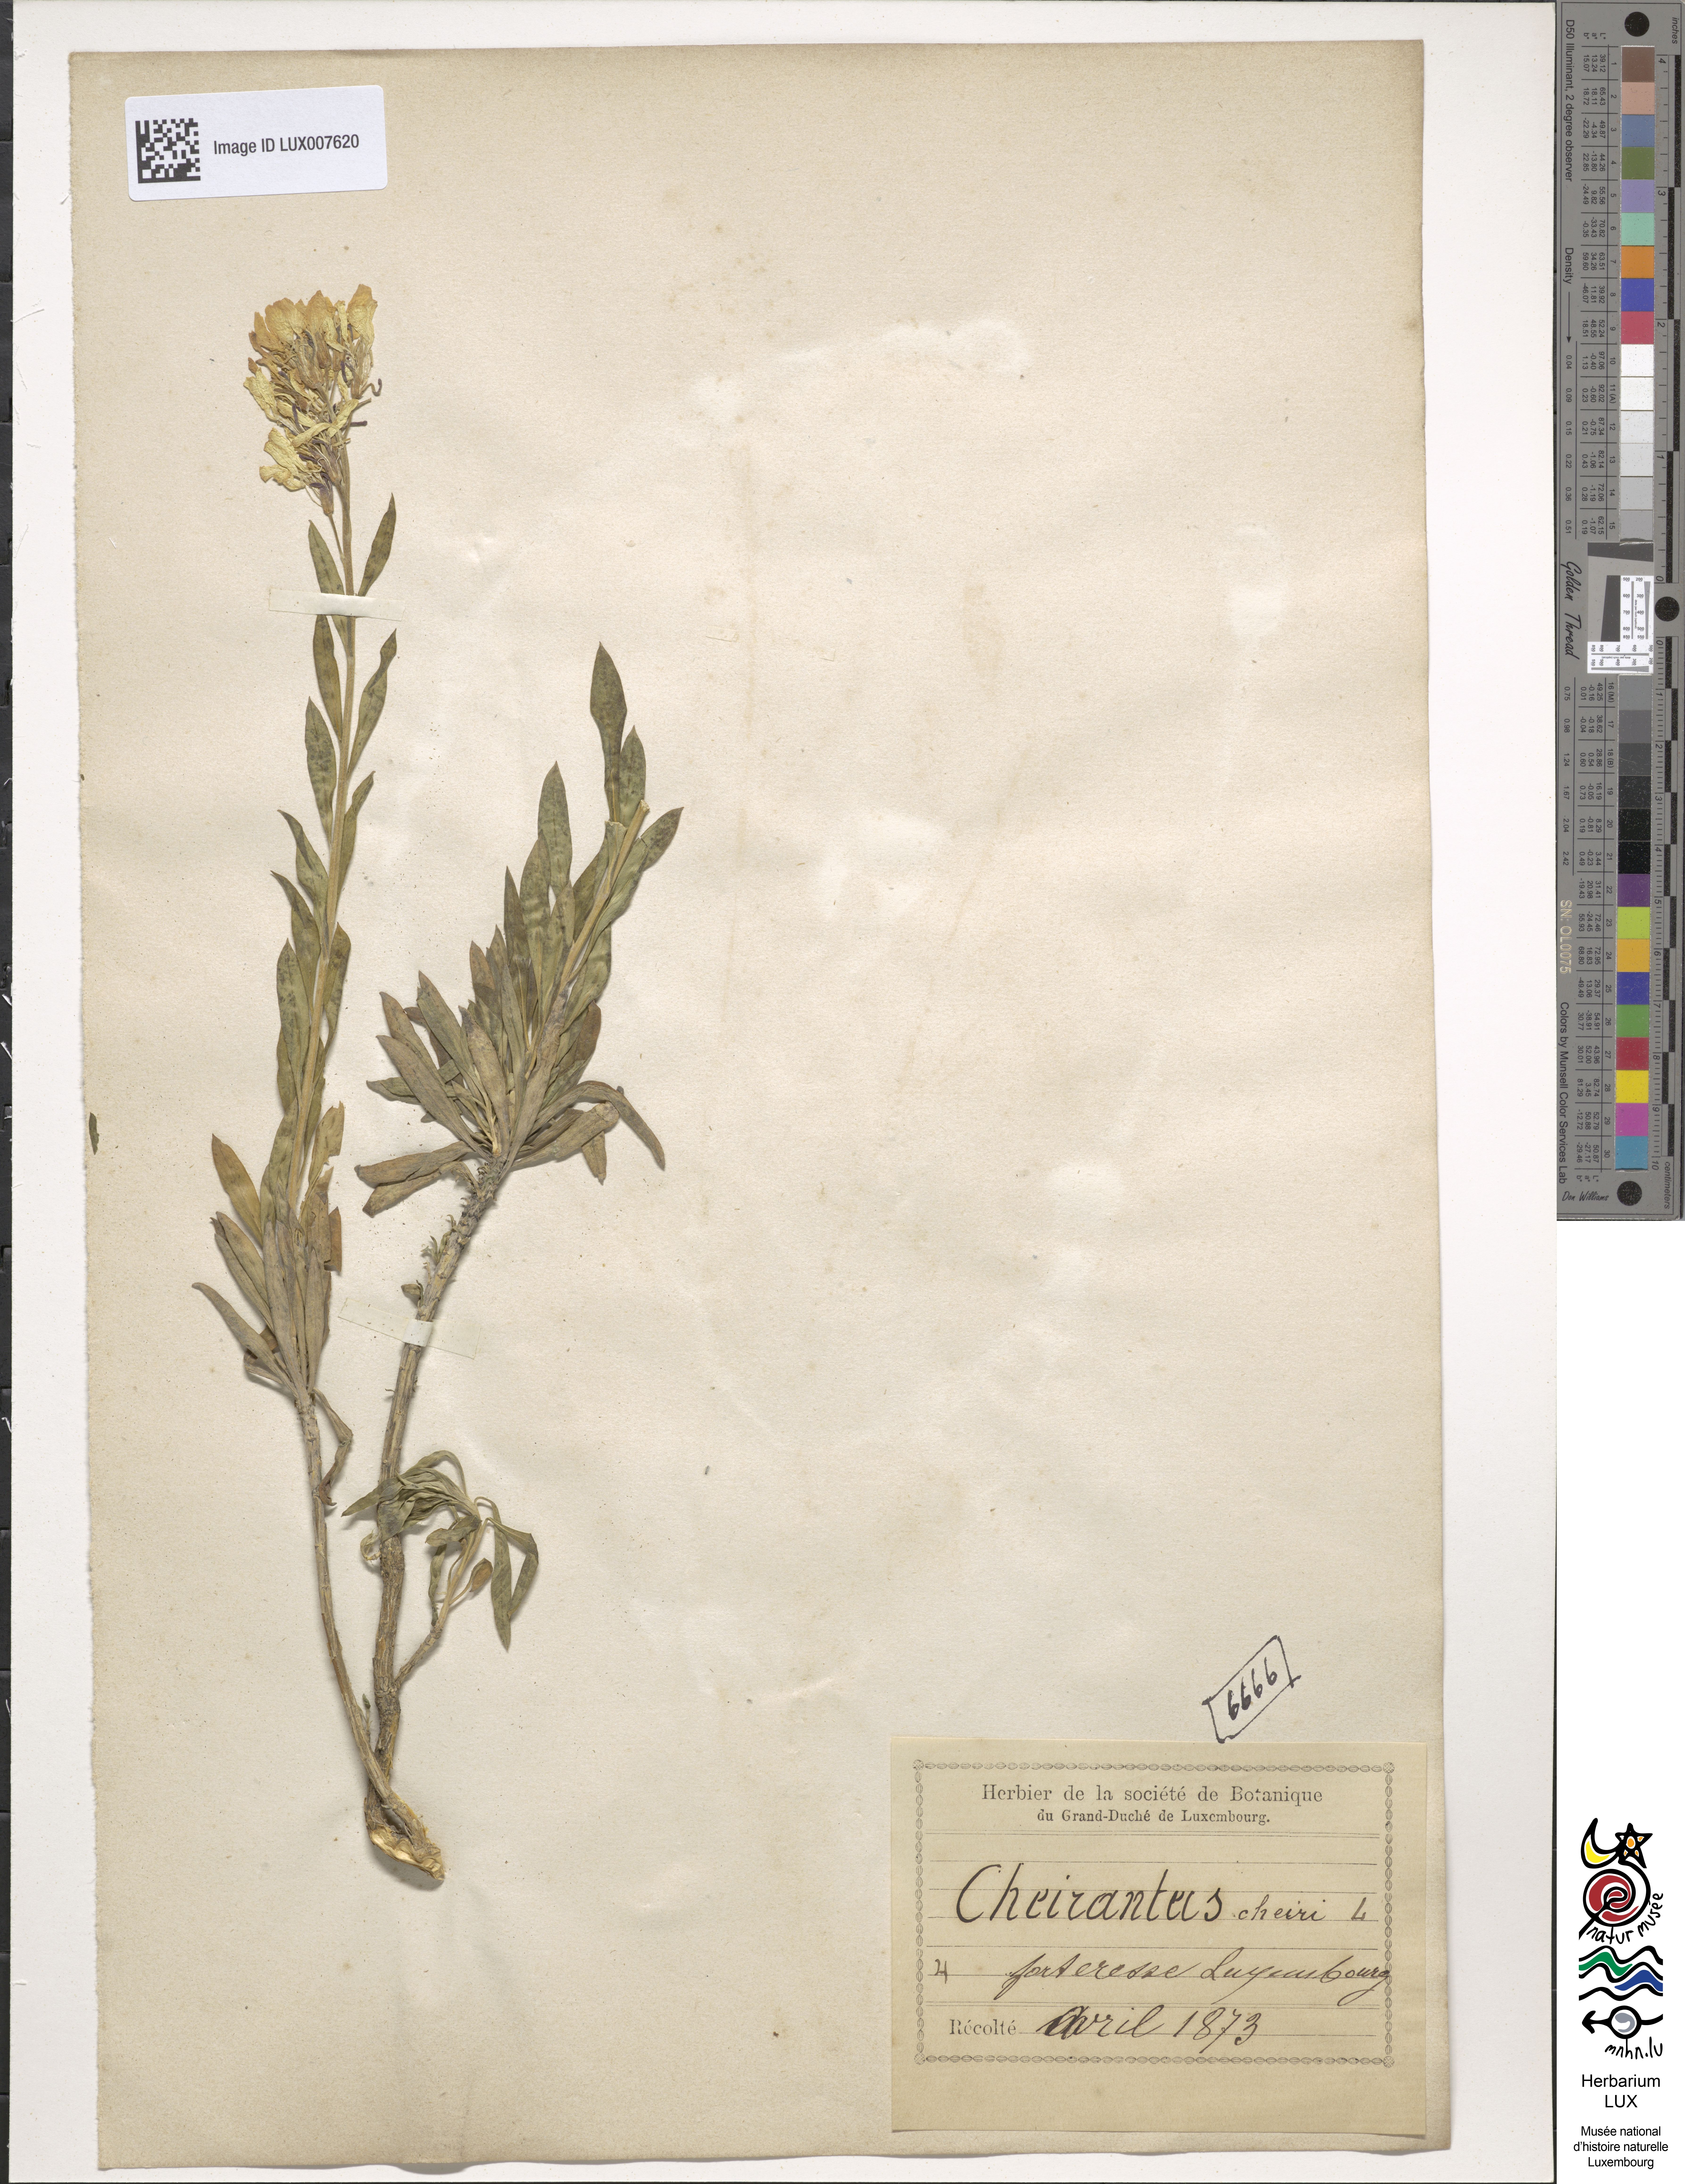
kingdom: Plantae
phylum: Tracheophyta
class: Magnoliopsida
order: Brassicales
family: Brassicaceae
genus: Erysimum
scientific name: Erysimum cheiri
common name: Wallflower
